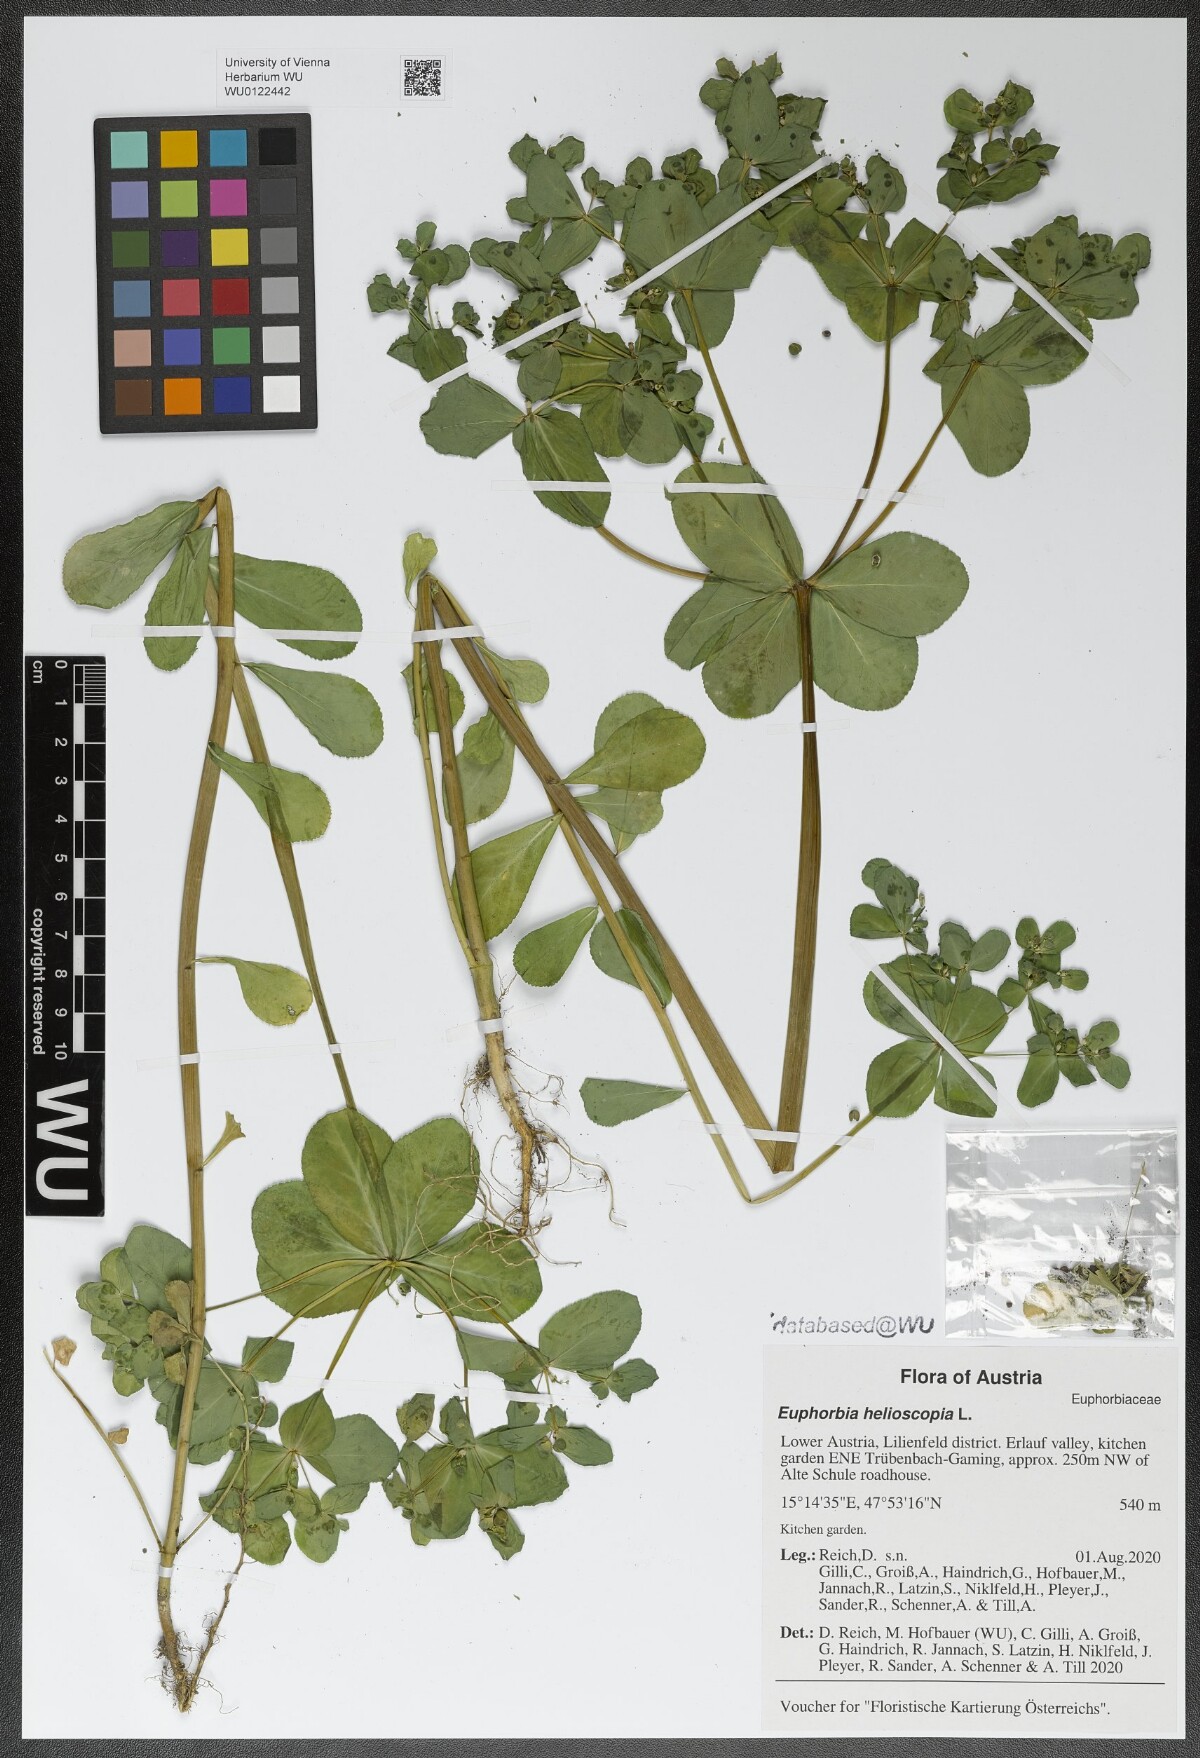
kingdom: Plantae
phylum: Tracheophyta
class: Magnoliopsida
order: Malpighiales
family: Euphorbiaceae
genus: Euphorbia
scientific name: Euphorbia helioscopia
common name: Sun spurge
